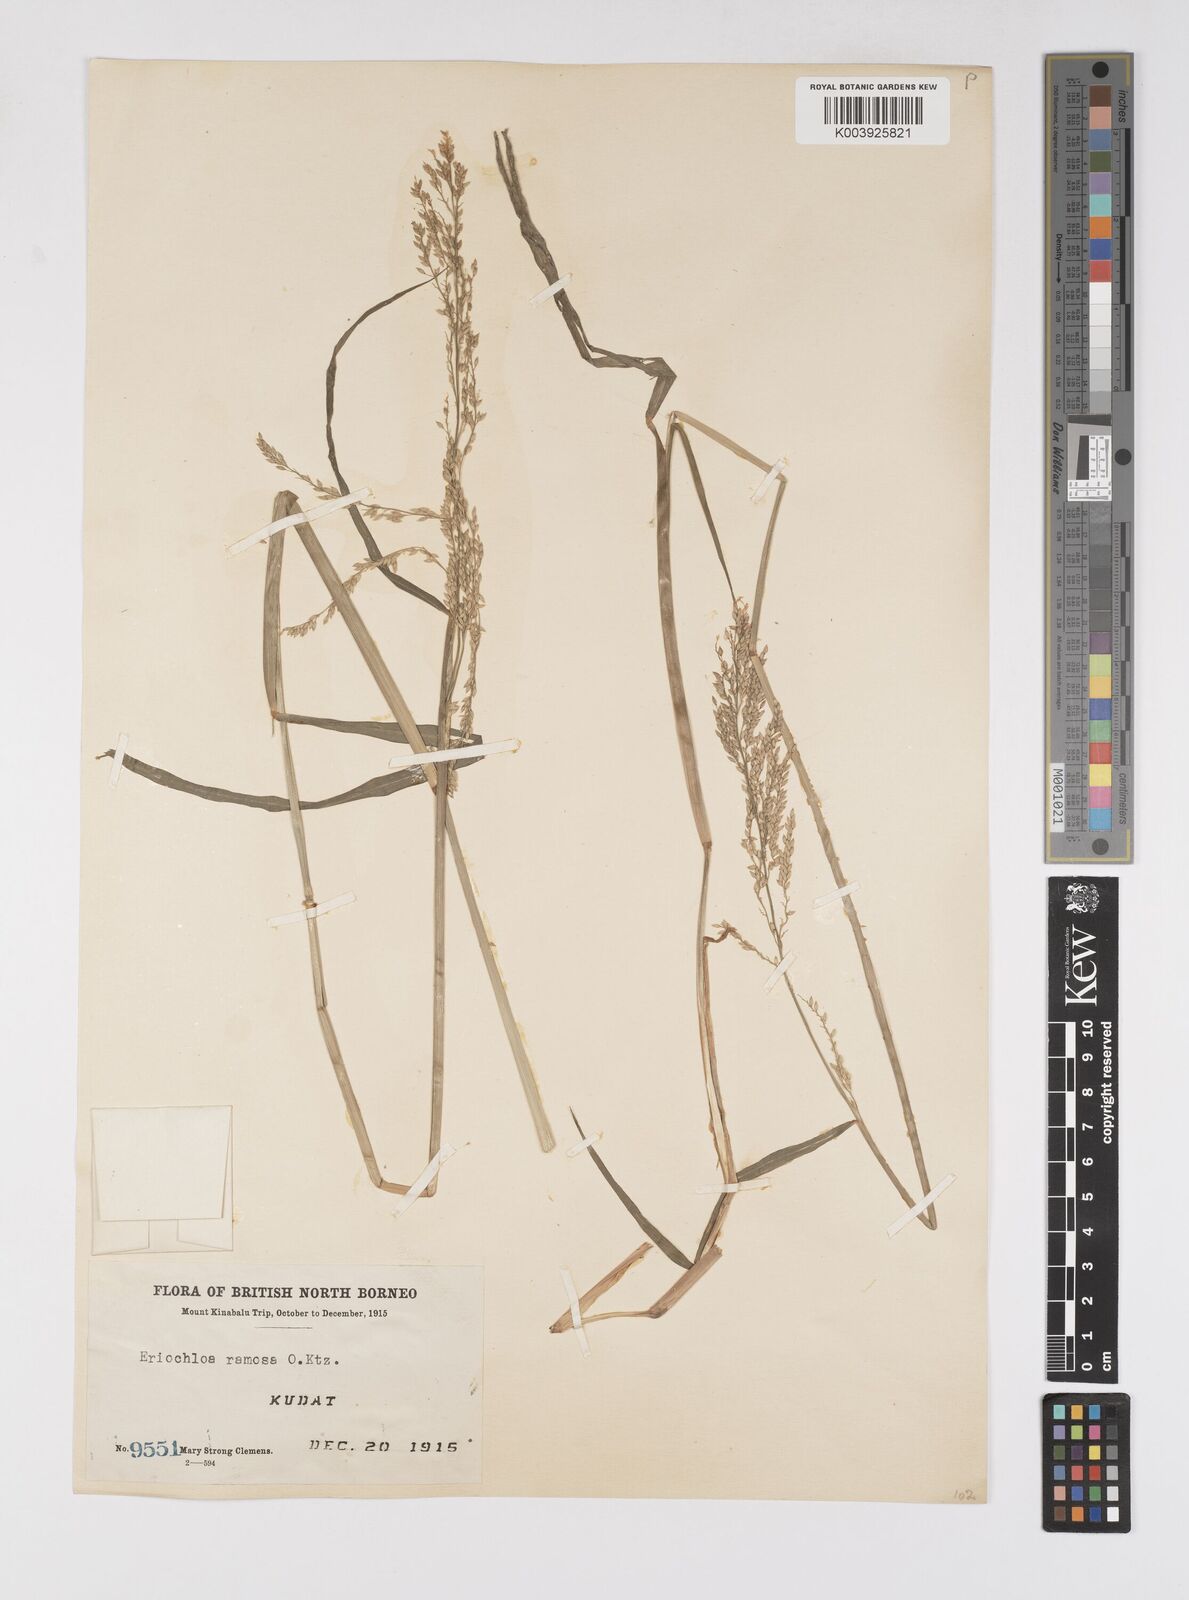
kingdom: Plantae
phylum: Tracheophyta
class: Liliopsida
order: Poales
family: Poaceae
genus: Eriochloa
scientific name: Eriochloa procera
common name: Spring grass
